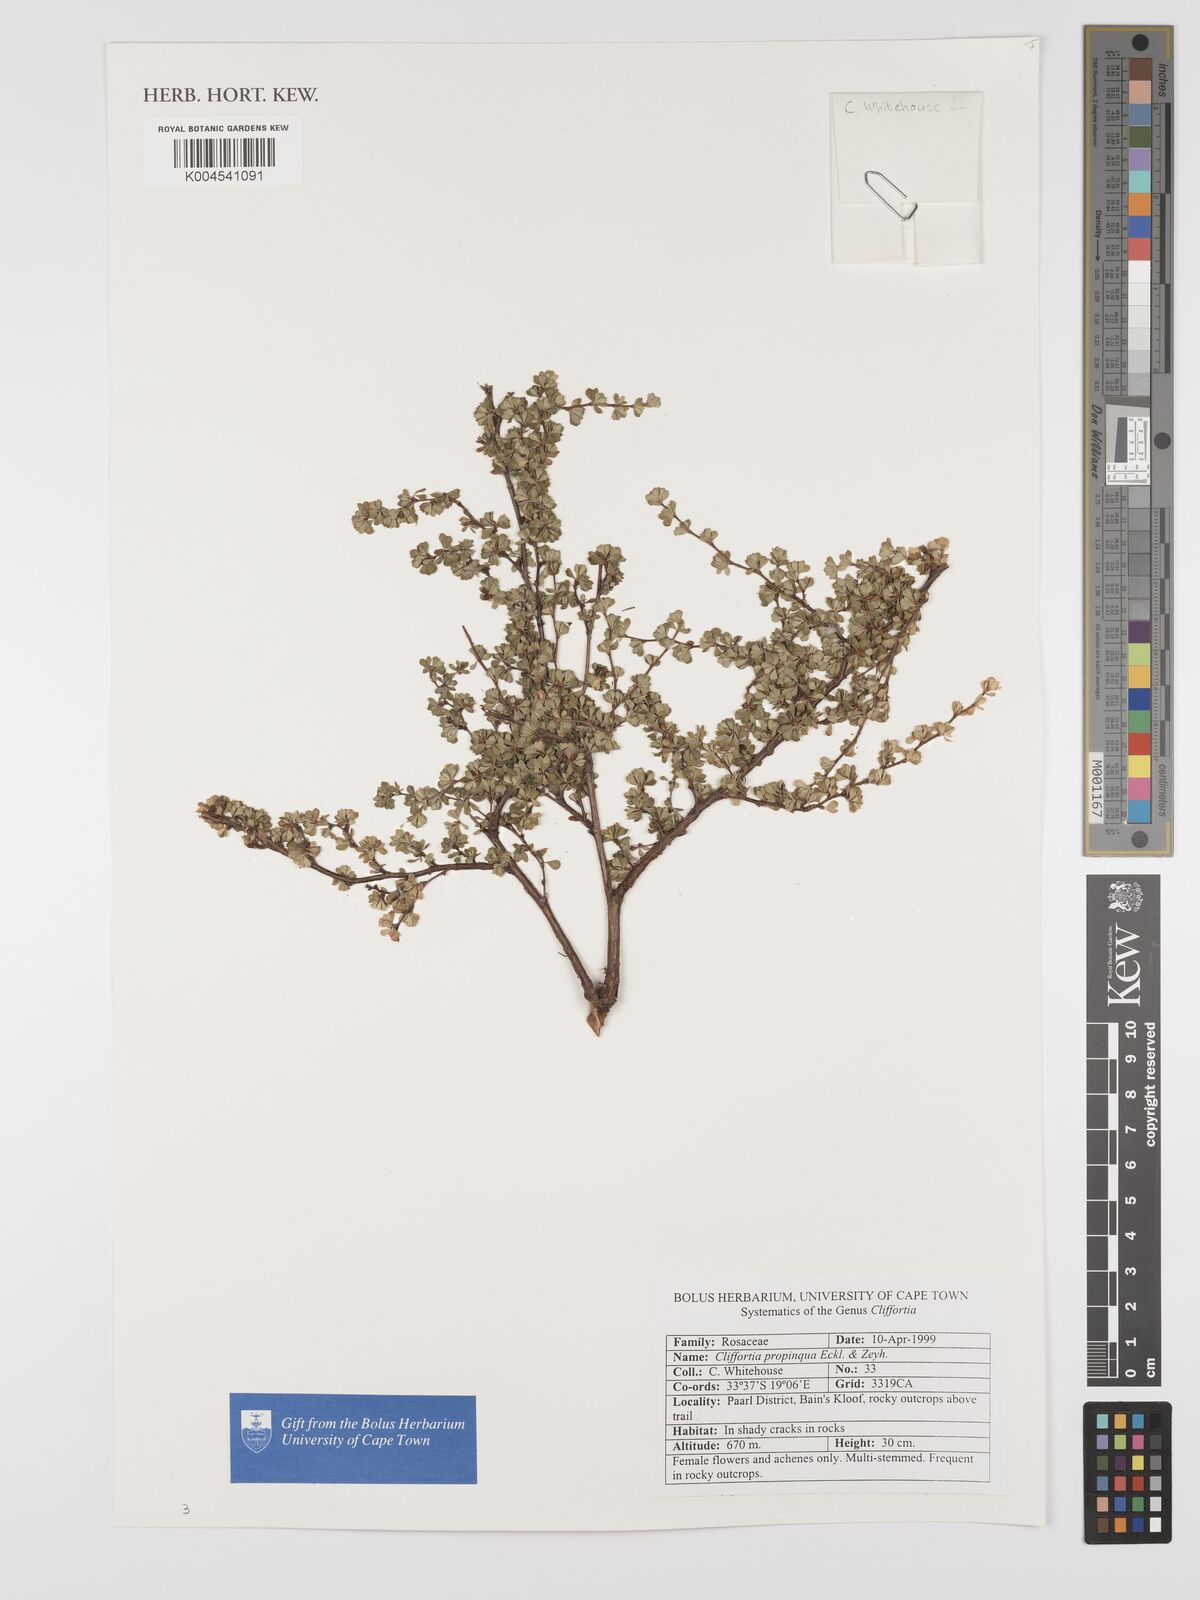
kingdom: Plantae
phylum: Tracheophyta
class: Magnoliopsida
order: Rosales
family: Rosaceae
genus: Cliffortia
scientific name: Cliffortia propinqua
